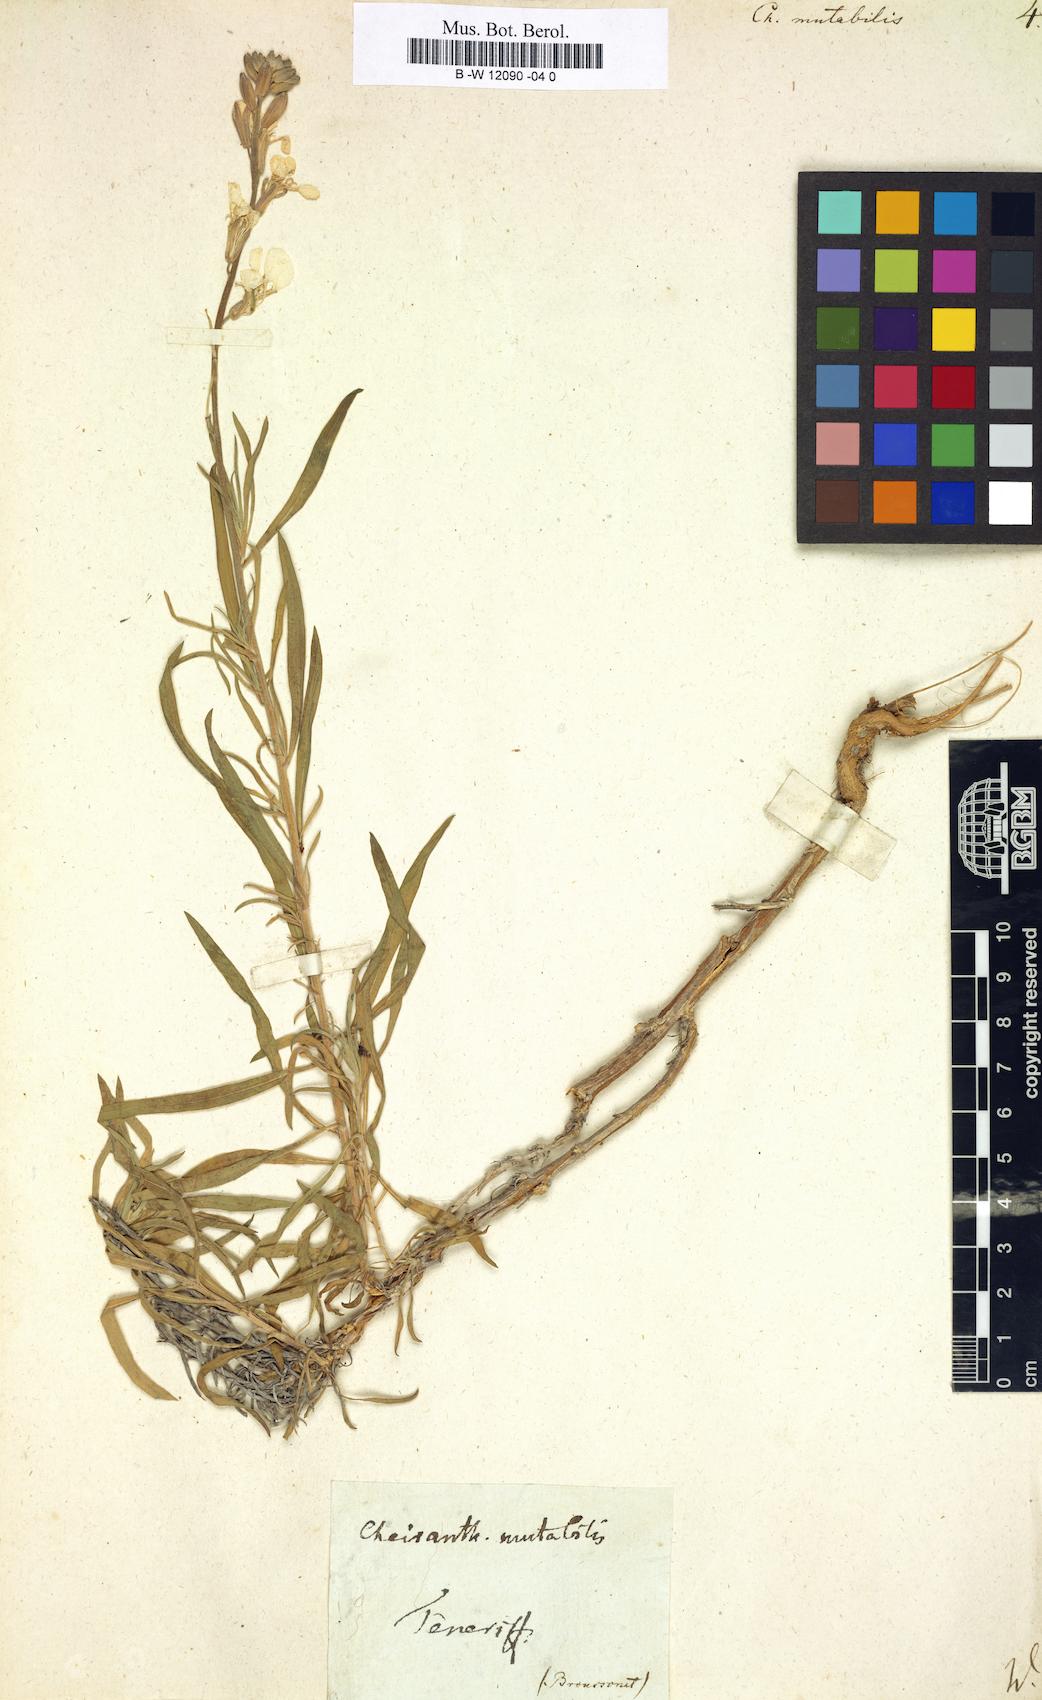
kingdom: Plantae
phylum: Tracheophyta
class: Magnoliopsida
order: Brassicales
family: Brassicaceae
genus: Erysimum
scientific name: Erysimum bicolor
